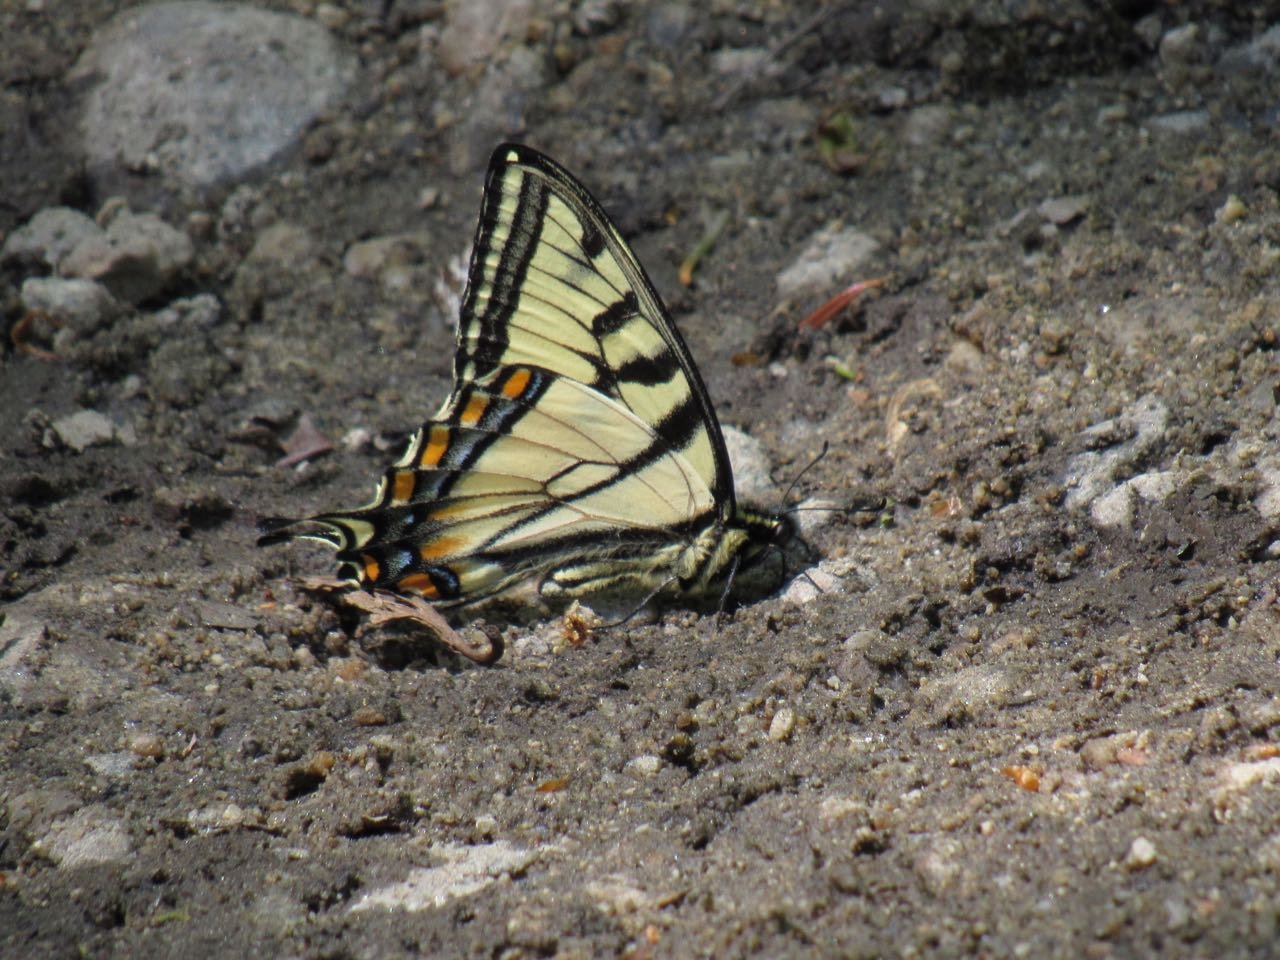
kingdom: Animalia
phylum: Arthropoda
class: Insecta
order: Lepidoptera
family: Papilionidae
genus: Pterourus
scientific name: Pterourus canadensis
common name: Canadian Tiger Swallowtail
